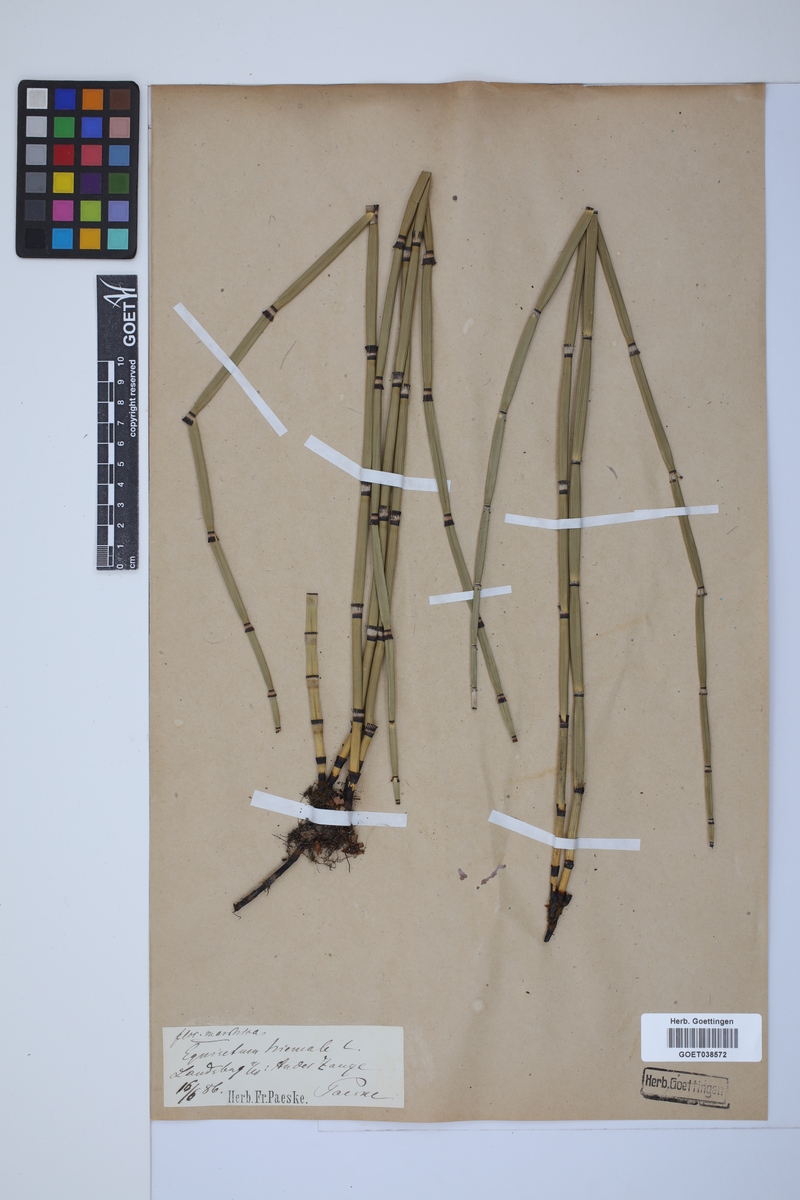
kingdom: Plantae
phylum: Tracheophyta
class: Polypodiopsida
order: Equisetales
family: Equisetaceae
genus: Equisetum
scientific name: Equisetum hyemale
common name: Rough horsetail
